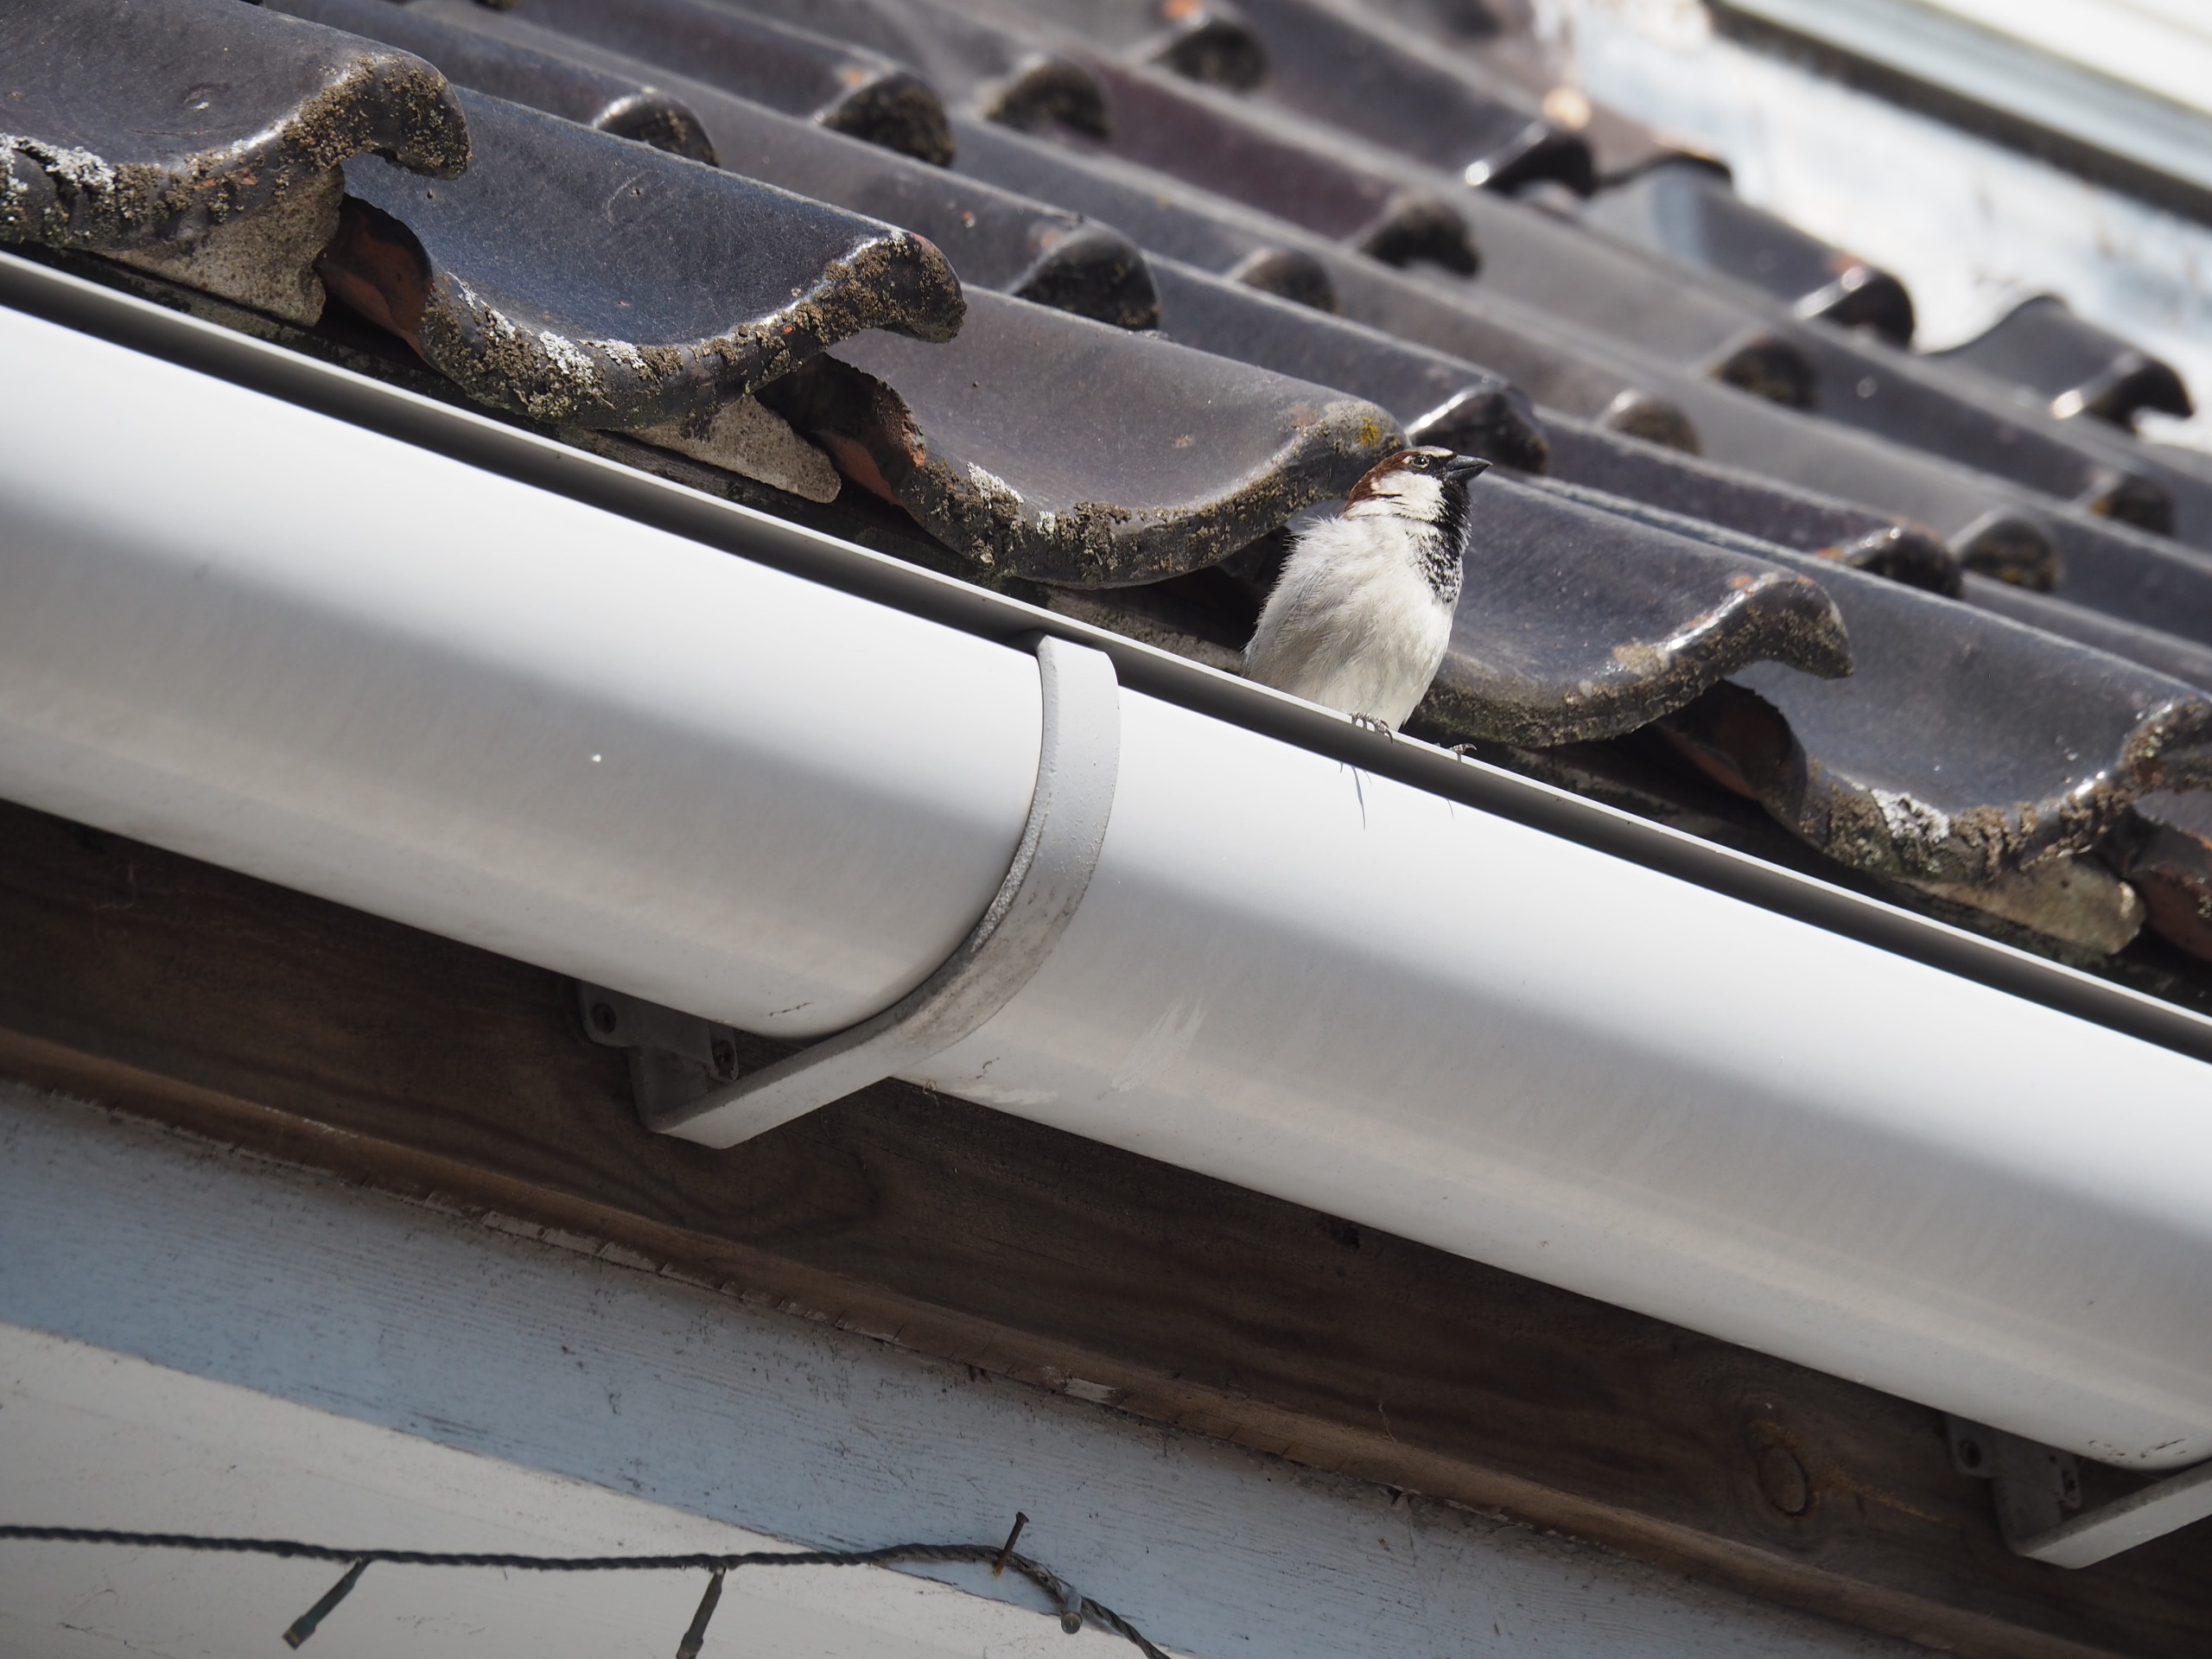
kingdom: Animalia
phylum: Chordata
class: Aves
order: Passeriformes
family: Passeridae
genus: Passer
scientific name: Passer domesticus
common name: Gråspurv
